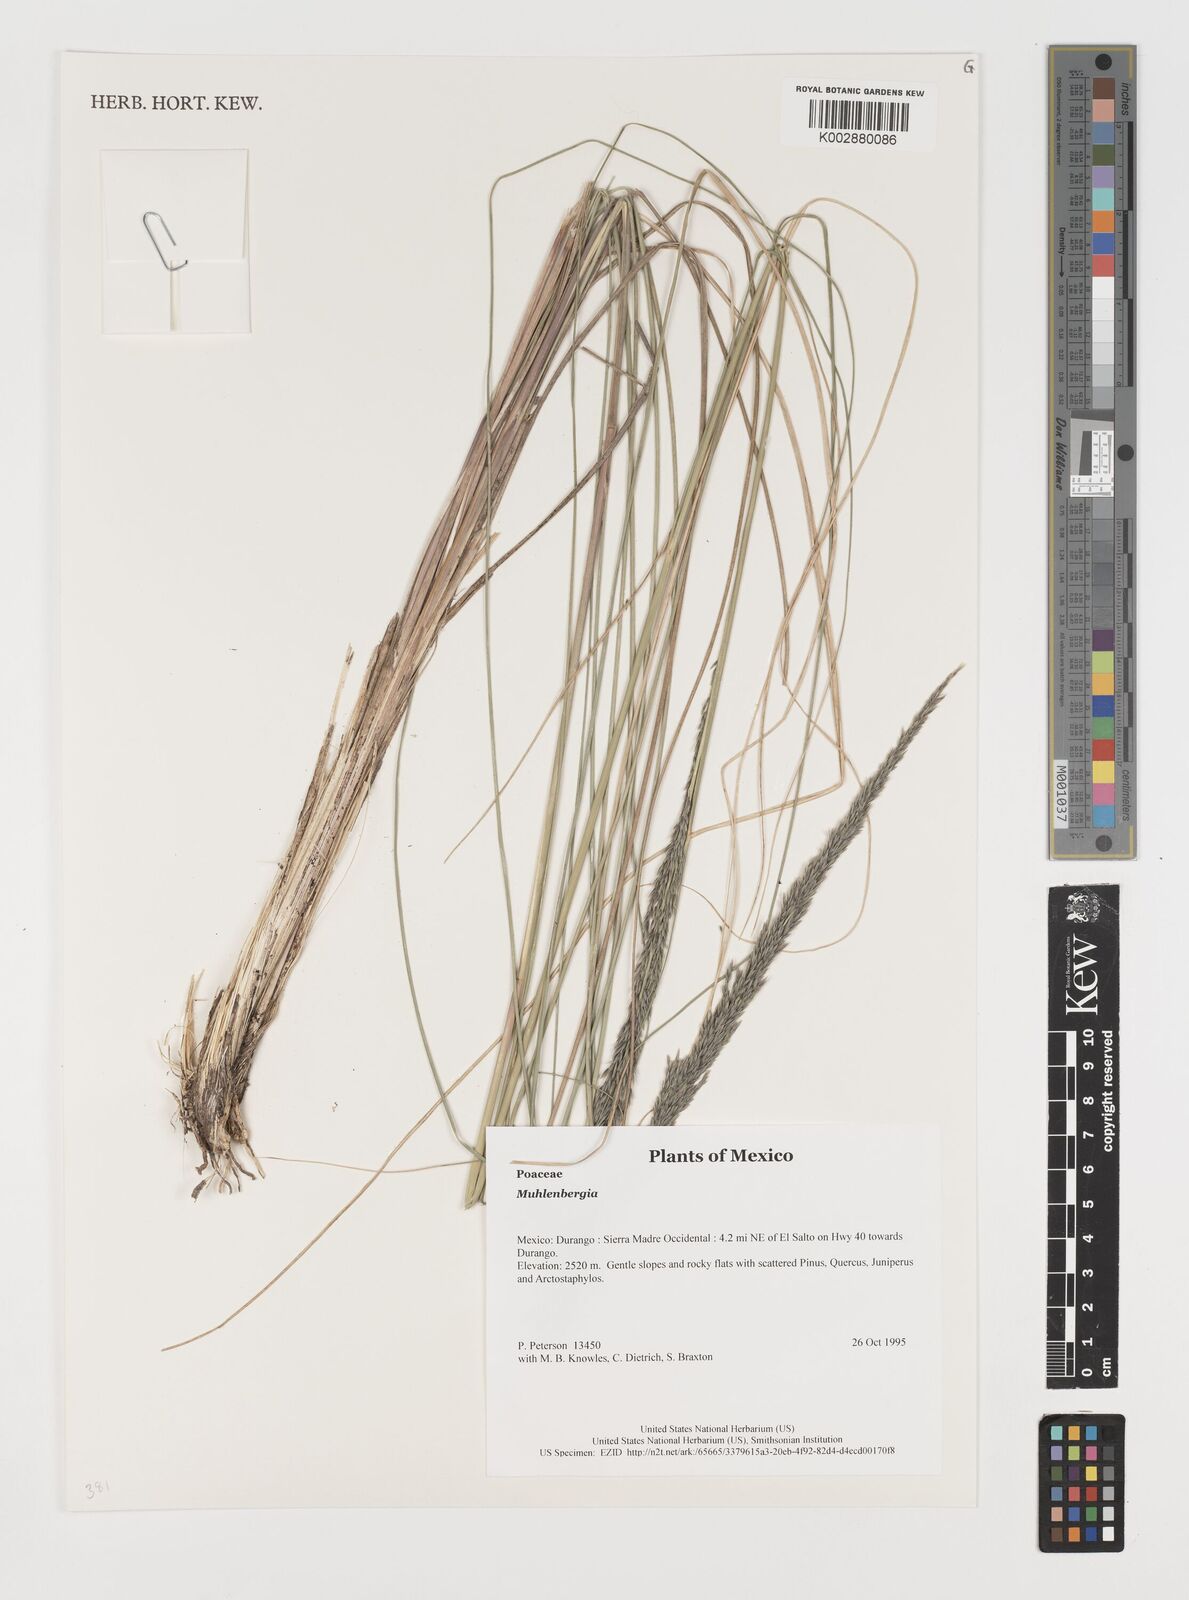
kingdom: Plantae
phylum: Tracheophyta
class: Liliopsida
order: Poales
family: Poaceae
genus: Muhlenbergia
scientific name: Muhlenbergia
